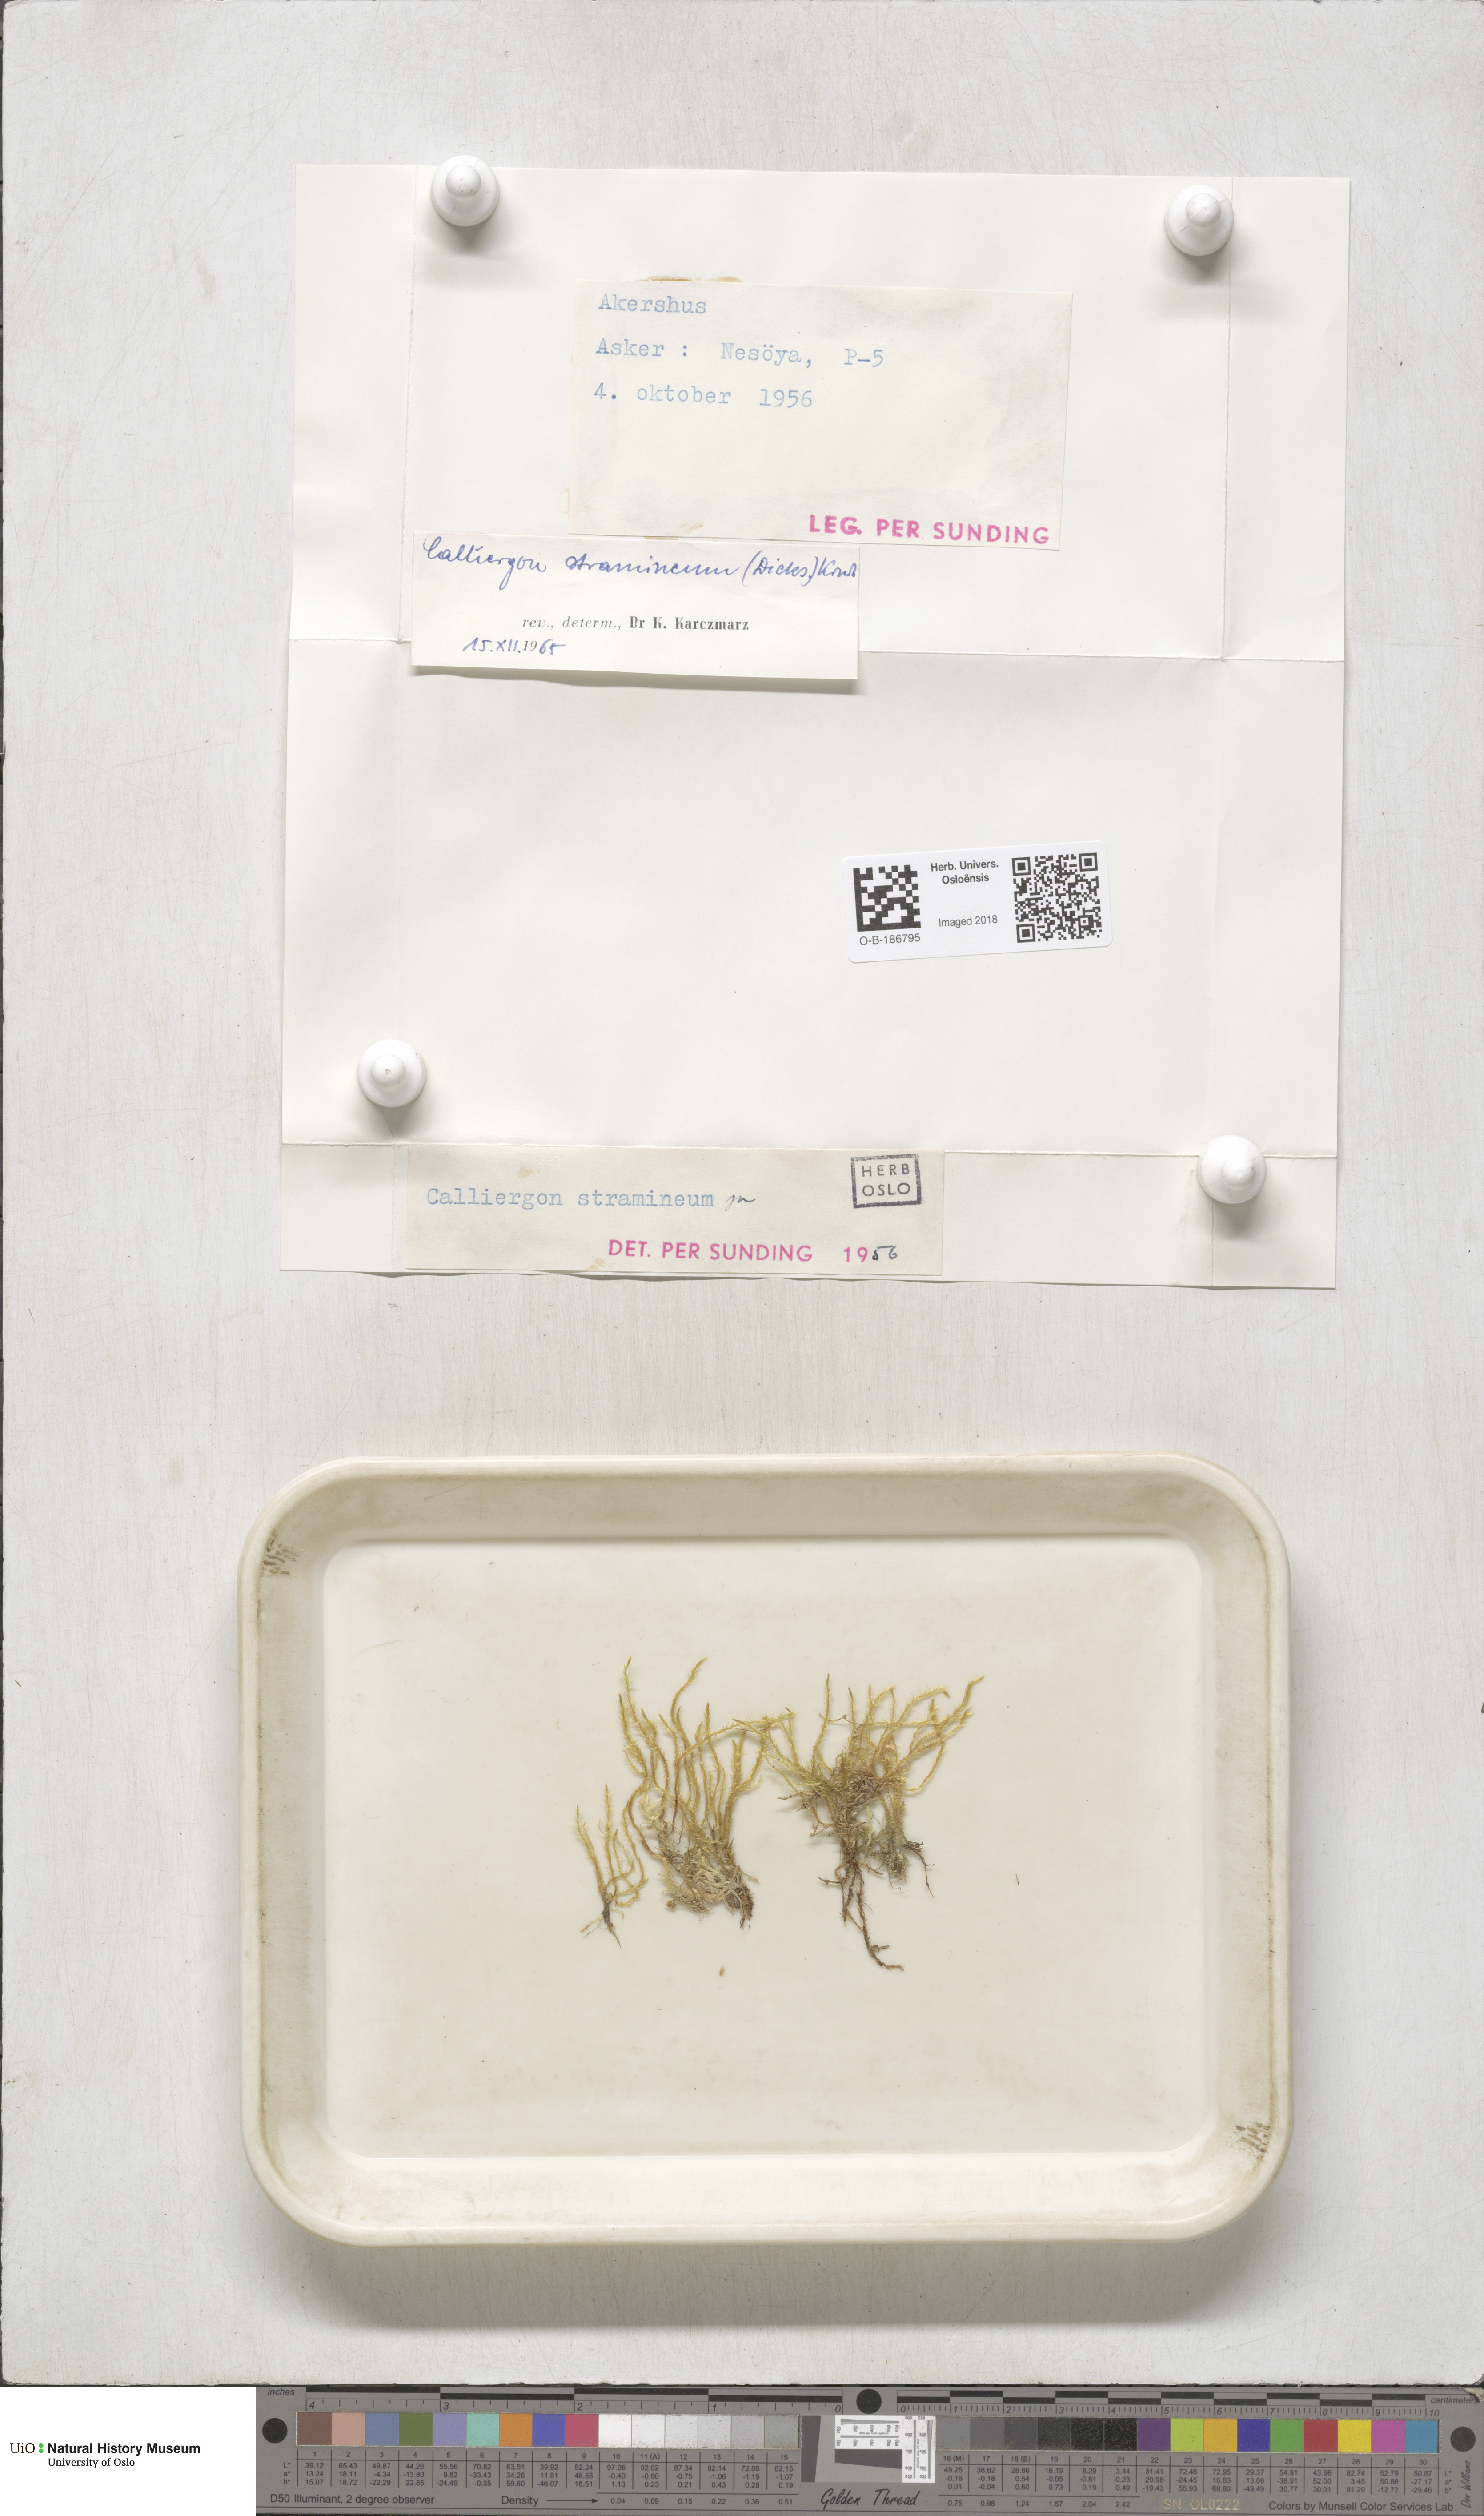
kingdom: Plantae
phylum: Bryophyta
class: Bryopsida
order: Hypnales
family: Calliergonaceae
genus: Straminergon
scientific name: Straminergon stramineum
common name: Straw moss
